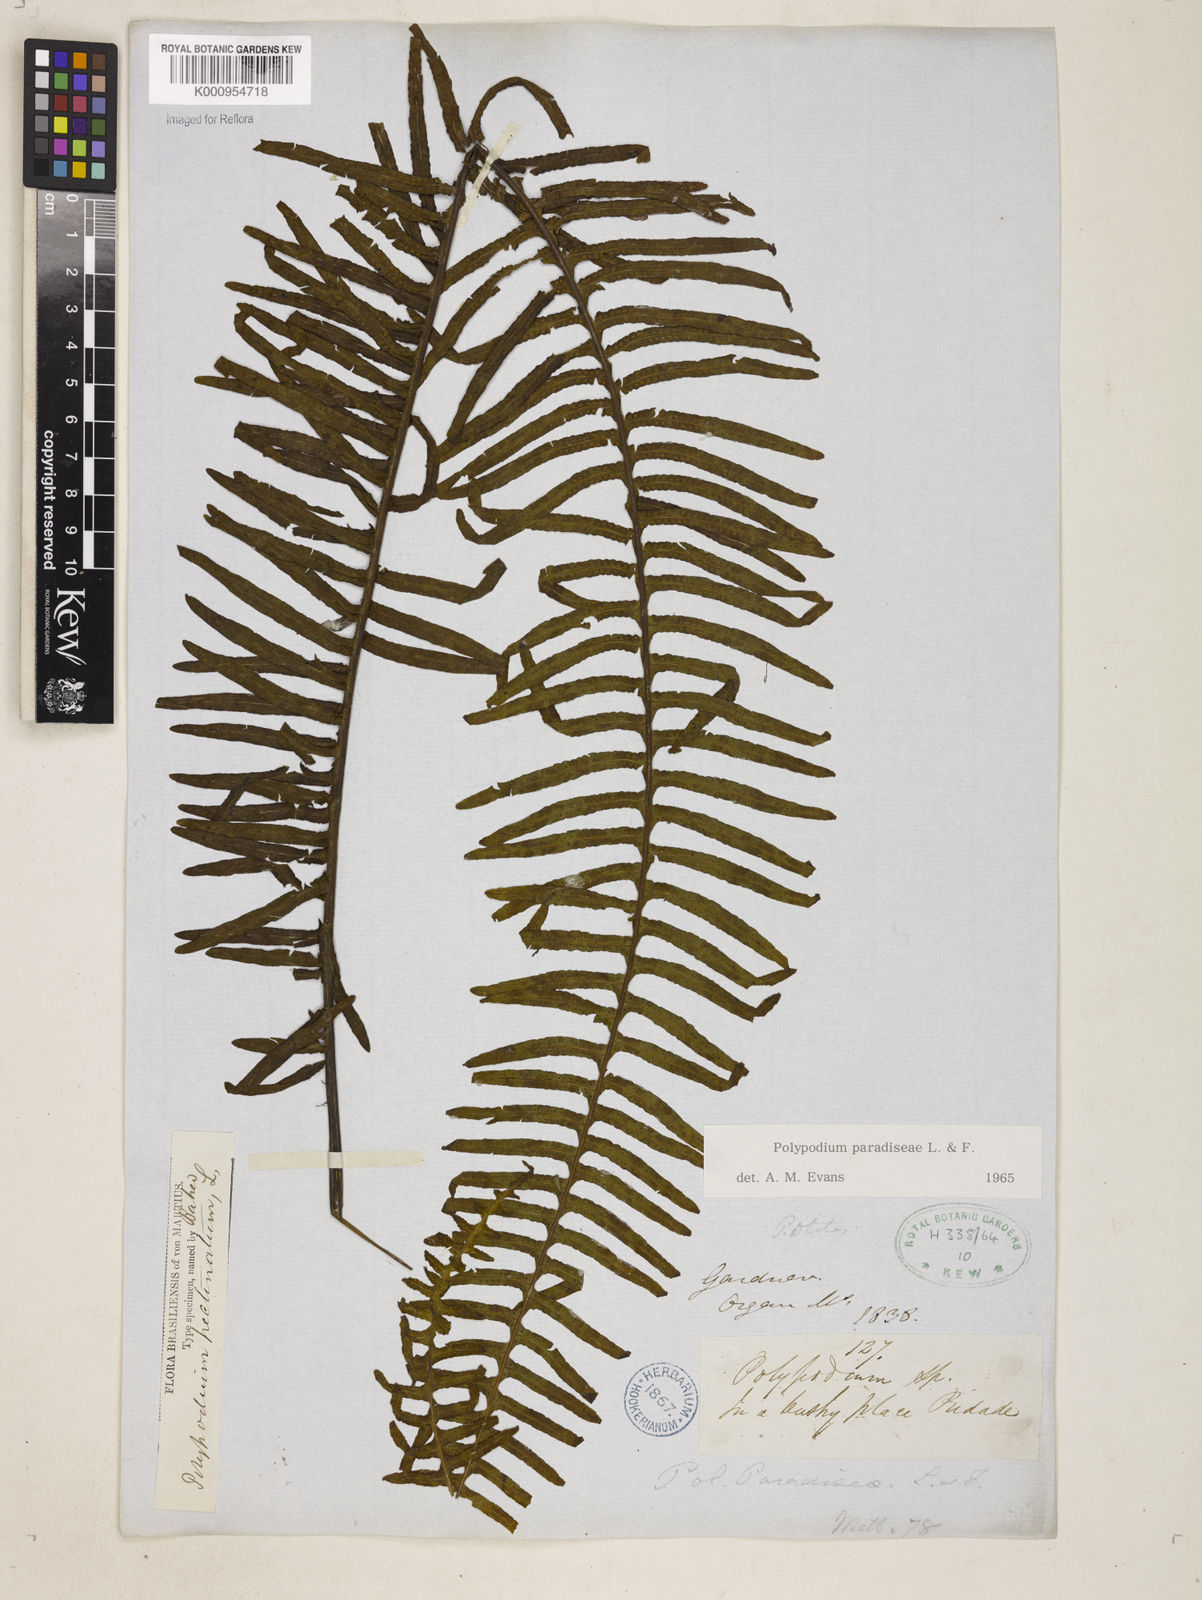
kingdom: Plantae
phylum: Tracheophyta
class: Polypodiopsida
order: Polypodiales
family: Polypodiaceae
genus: Pecluma
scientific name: Pecluma paradiseae
